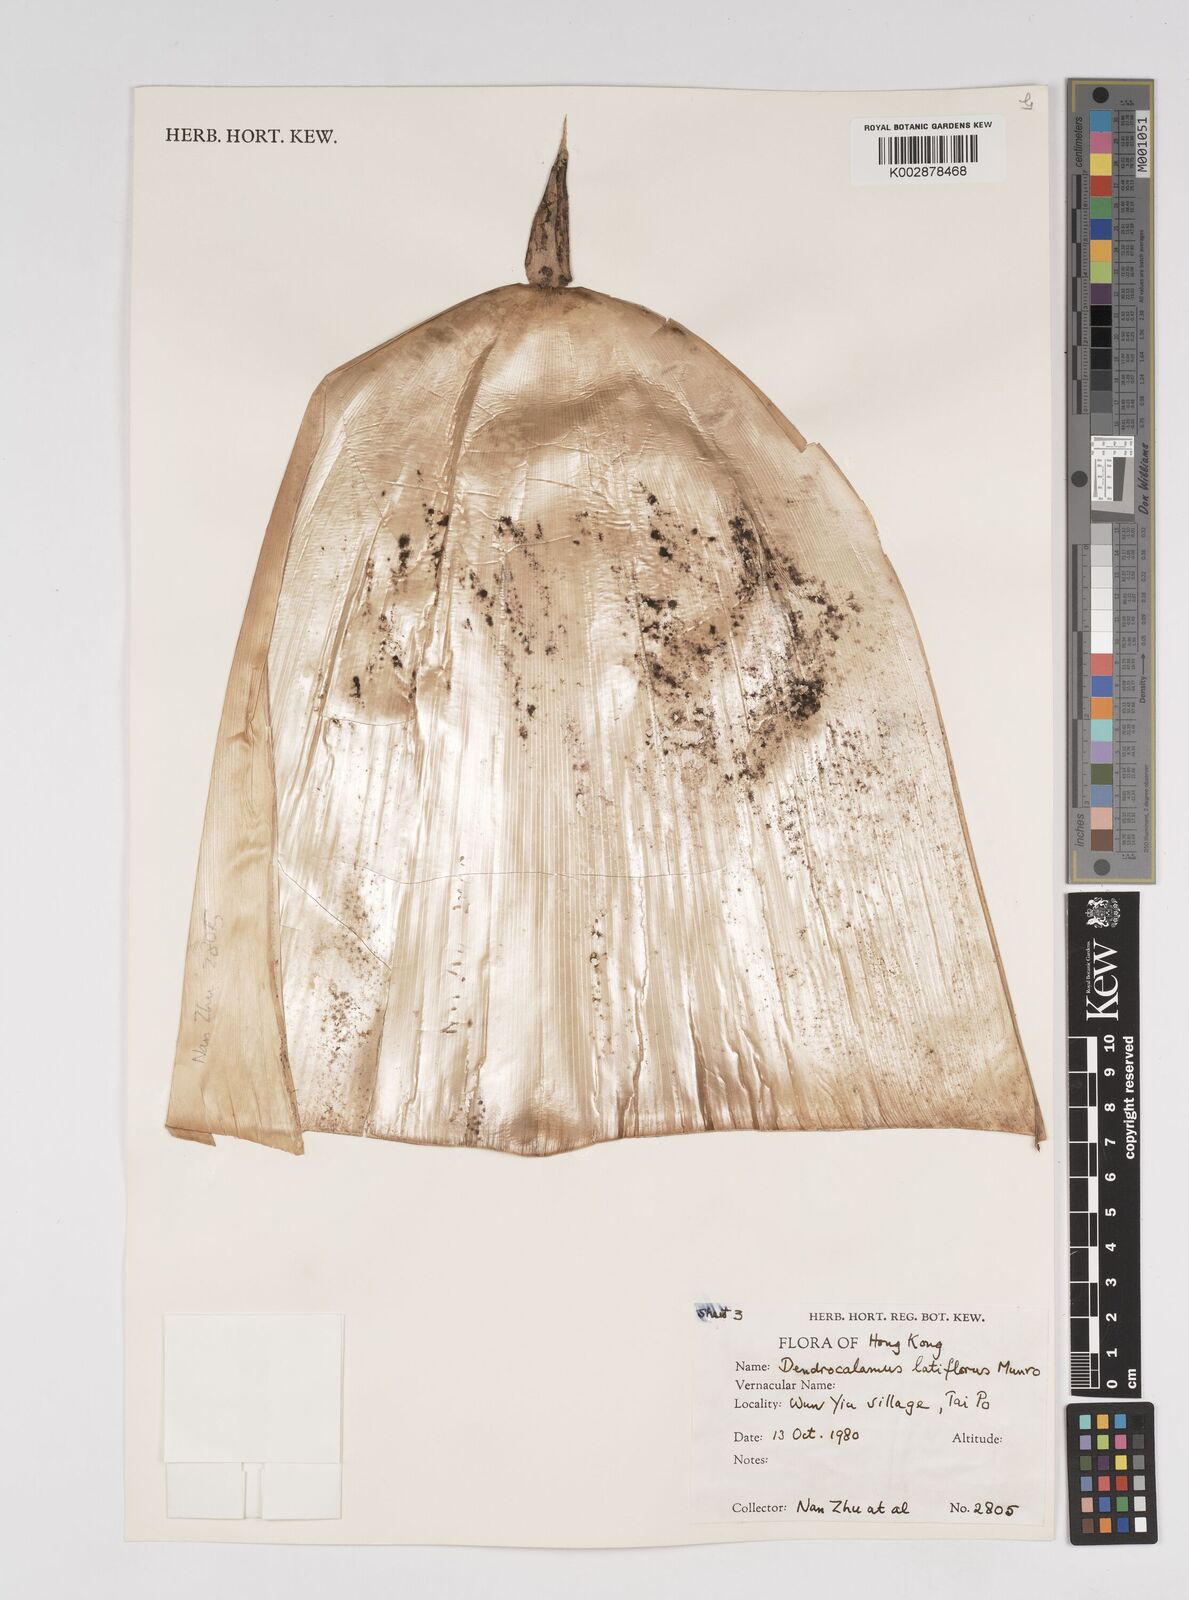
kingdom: Plantae
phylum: Tracheophyta
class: Liliopsida
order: Poales
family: Poaceae
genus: Dendrocalamus
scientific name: Dendrocalamus latiflorus
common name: Giant bamboo
